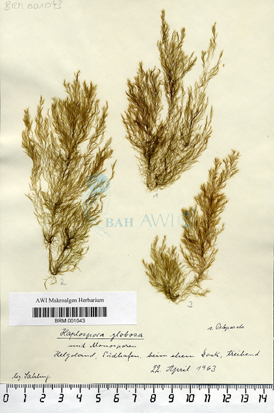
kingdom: Chromista
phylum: Ochrophyta
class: Phaeophyceae
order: Tilopteridales
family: Tilopteridaceae
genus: Haplospora
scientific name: Haplospora globosa
